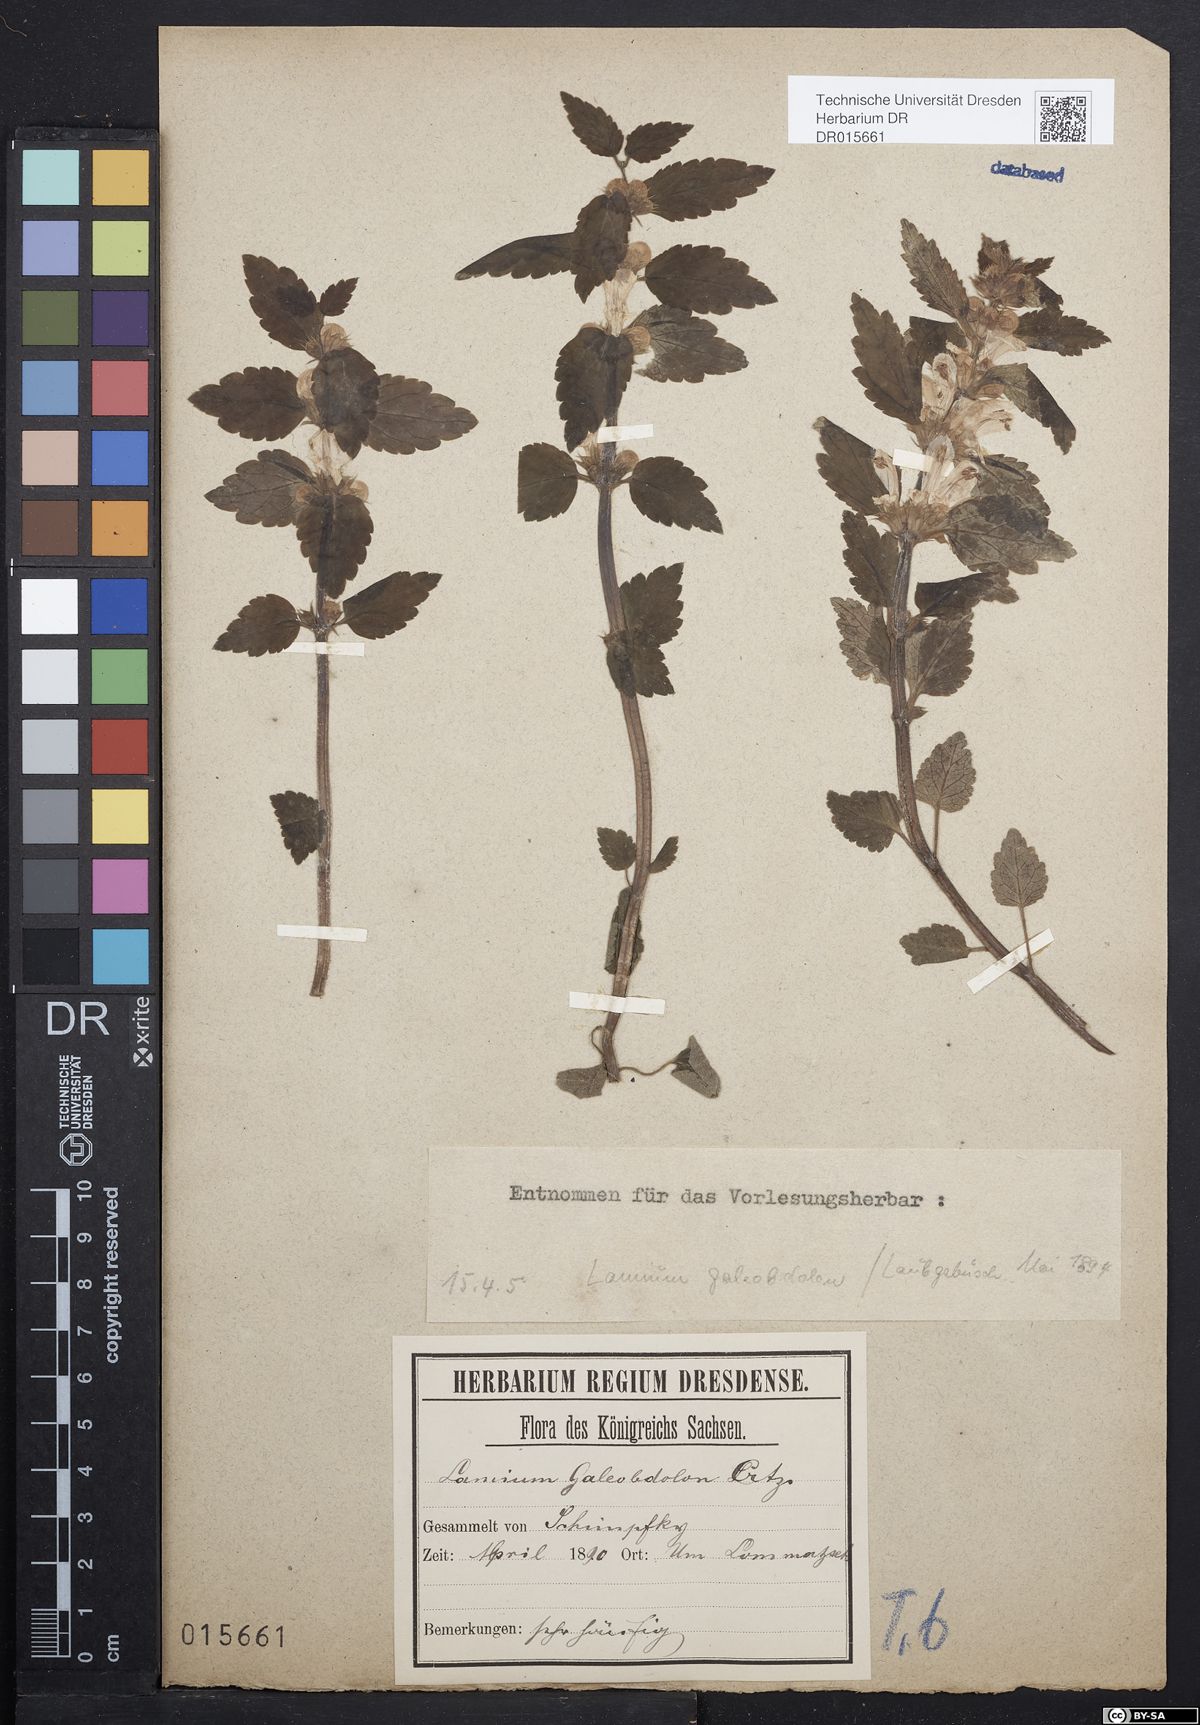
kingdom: Plantae
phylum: Tracheophyta
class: Magnoliopsida
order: Lamiales
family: Lamiaceae
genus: Lamium
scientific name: Lamium galeobdolon
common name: Yellow archangel
